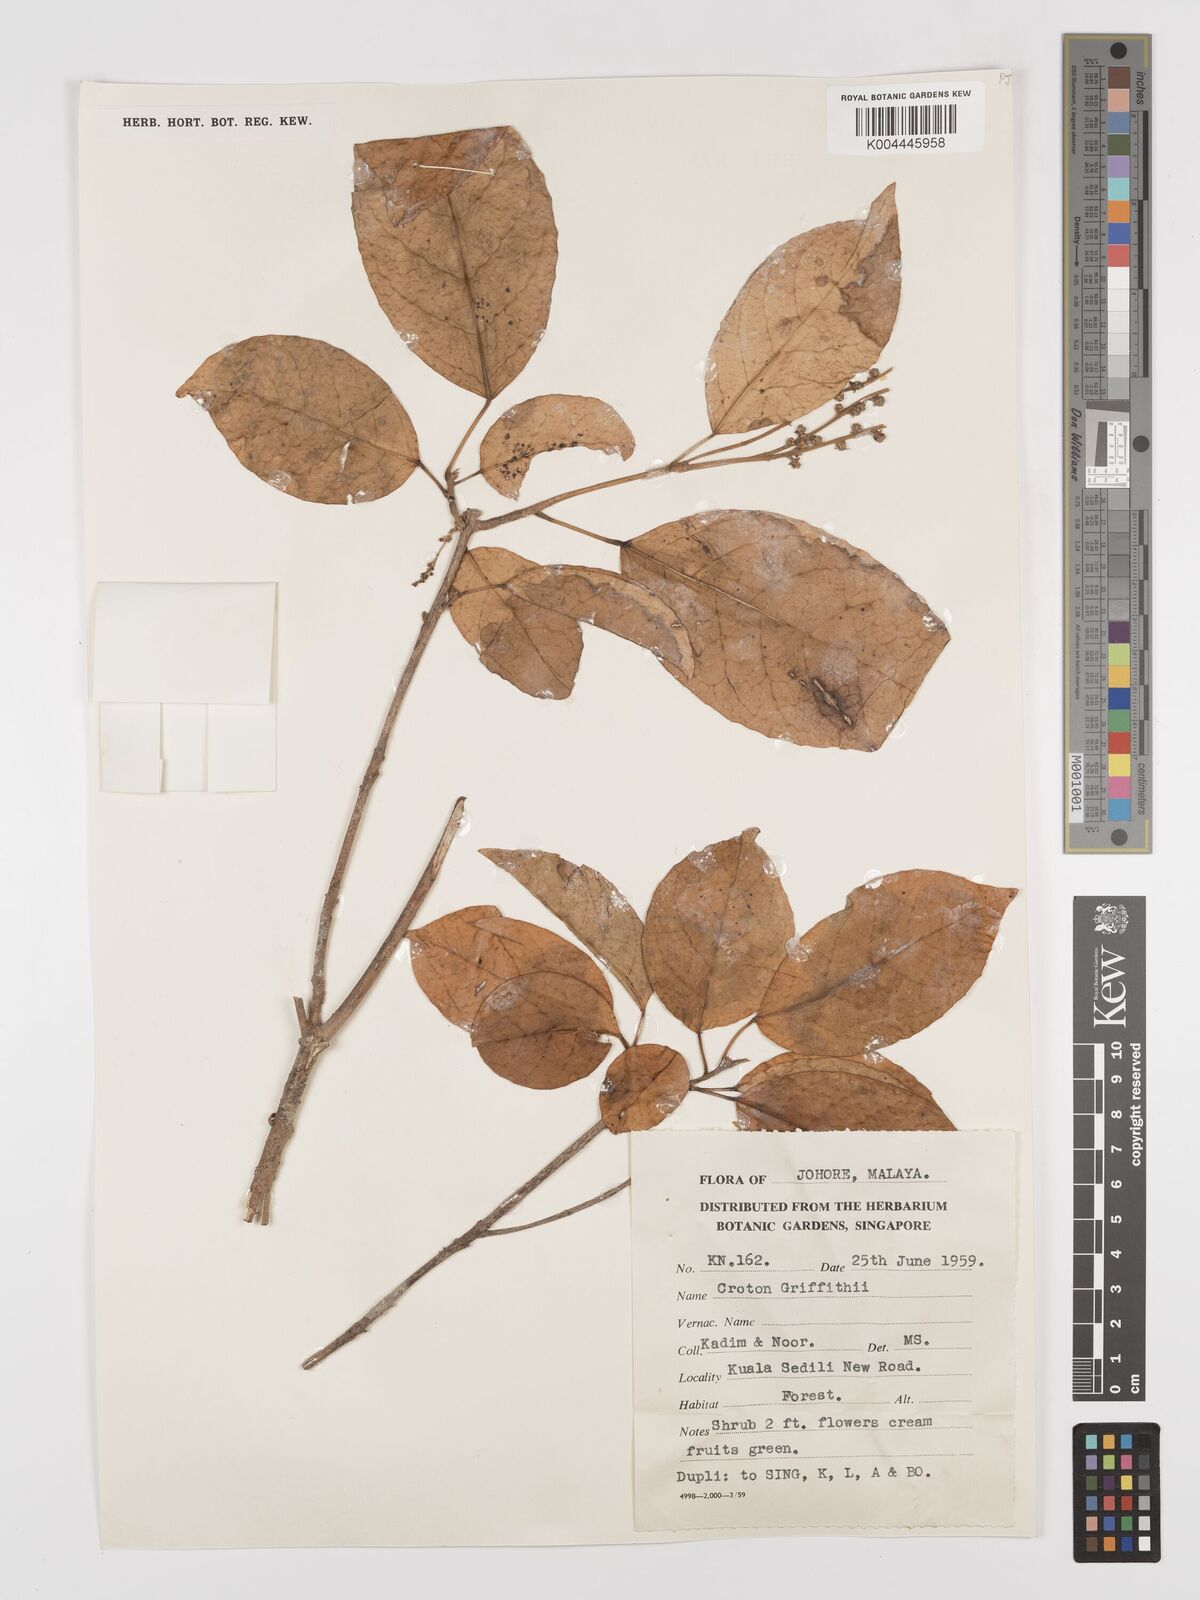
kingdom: Plantae
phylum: Tracheophyta
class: Magnoliopsida
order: Malpighiales
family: Euphorbiaceae
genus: Croton
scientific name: Croton griffithii
